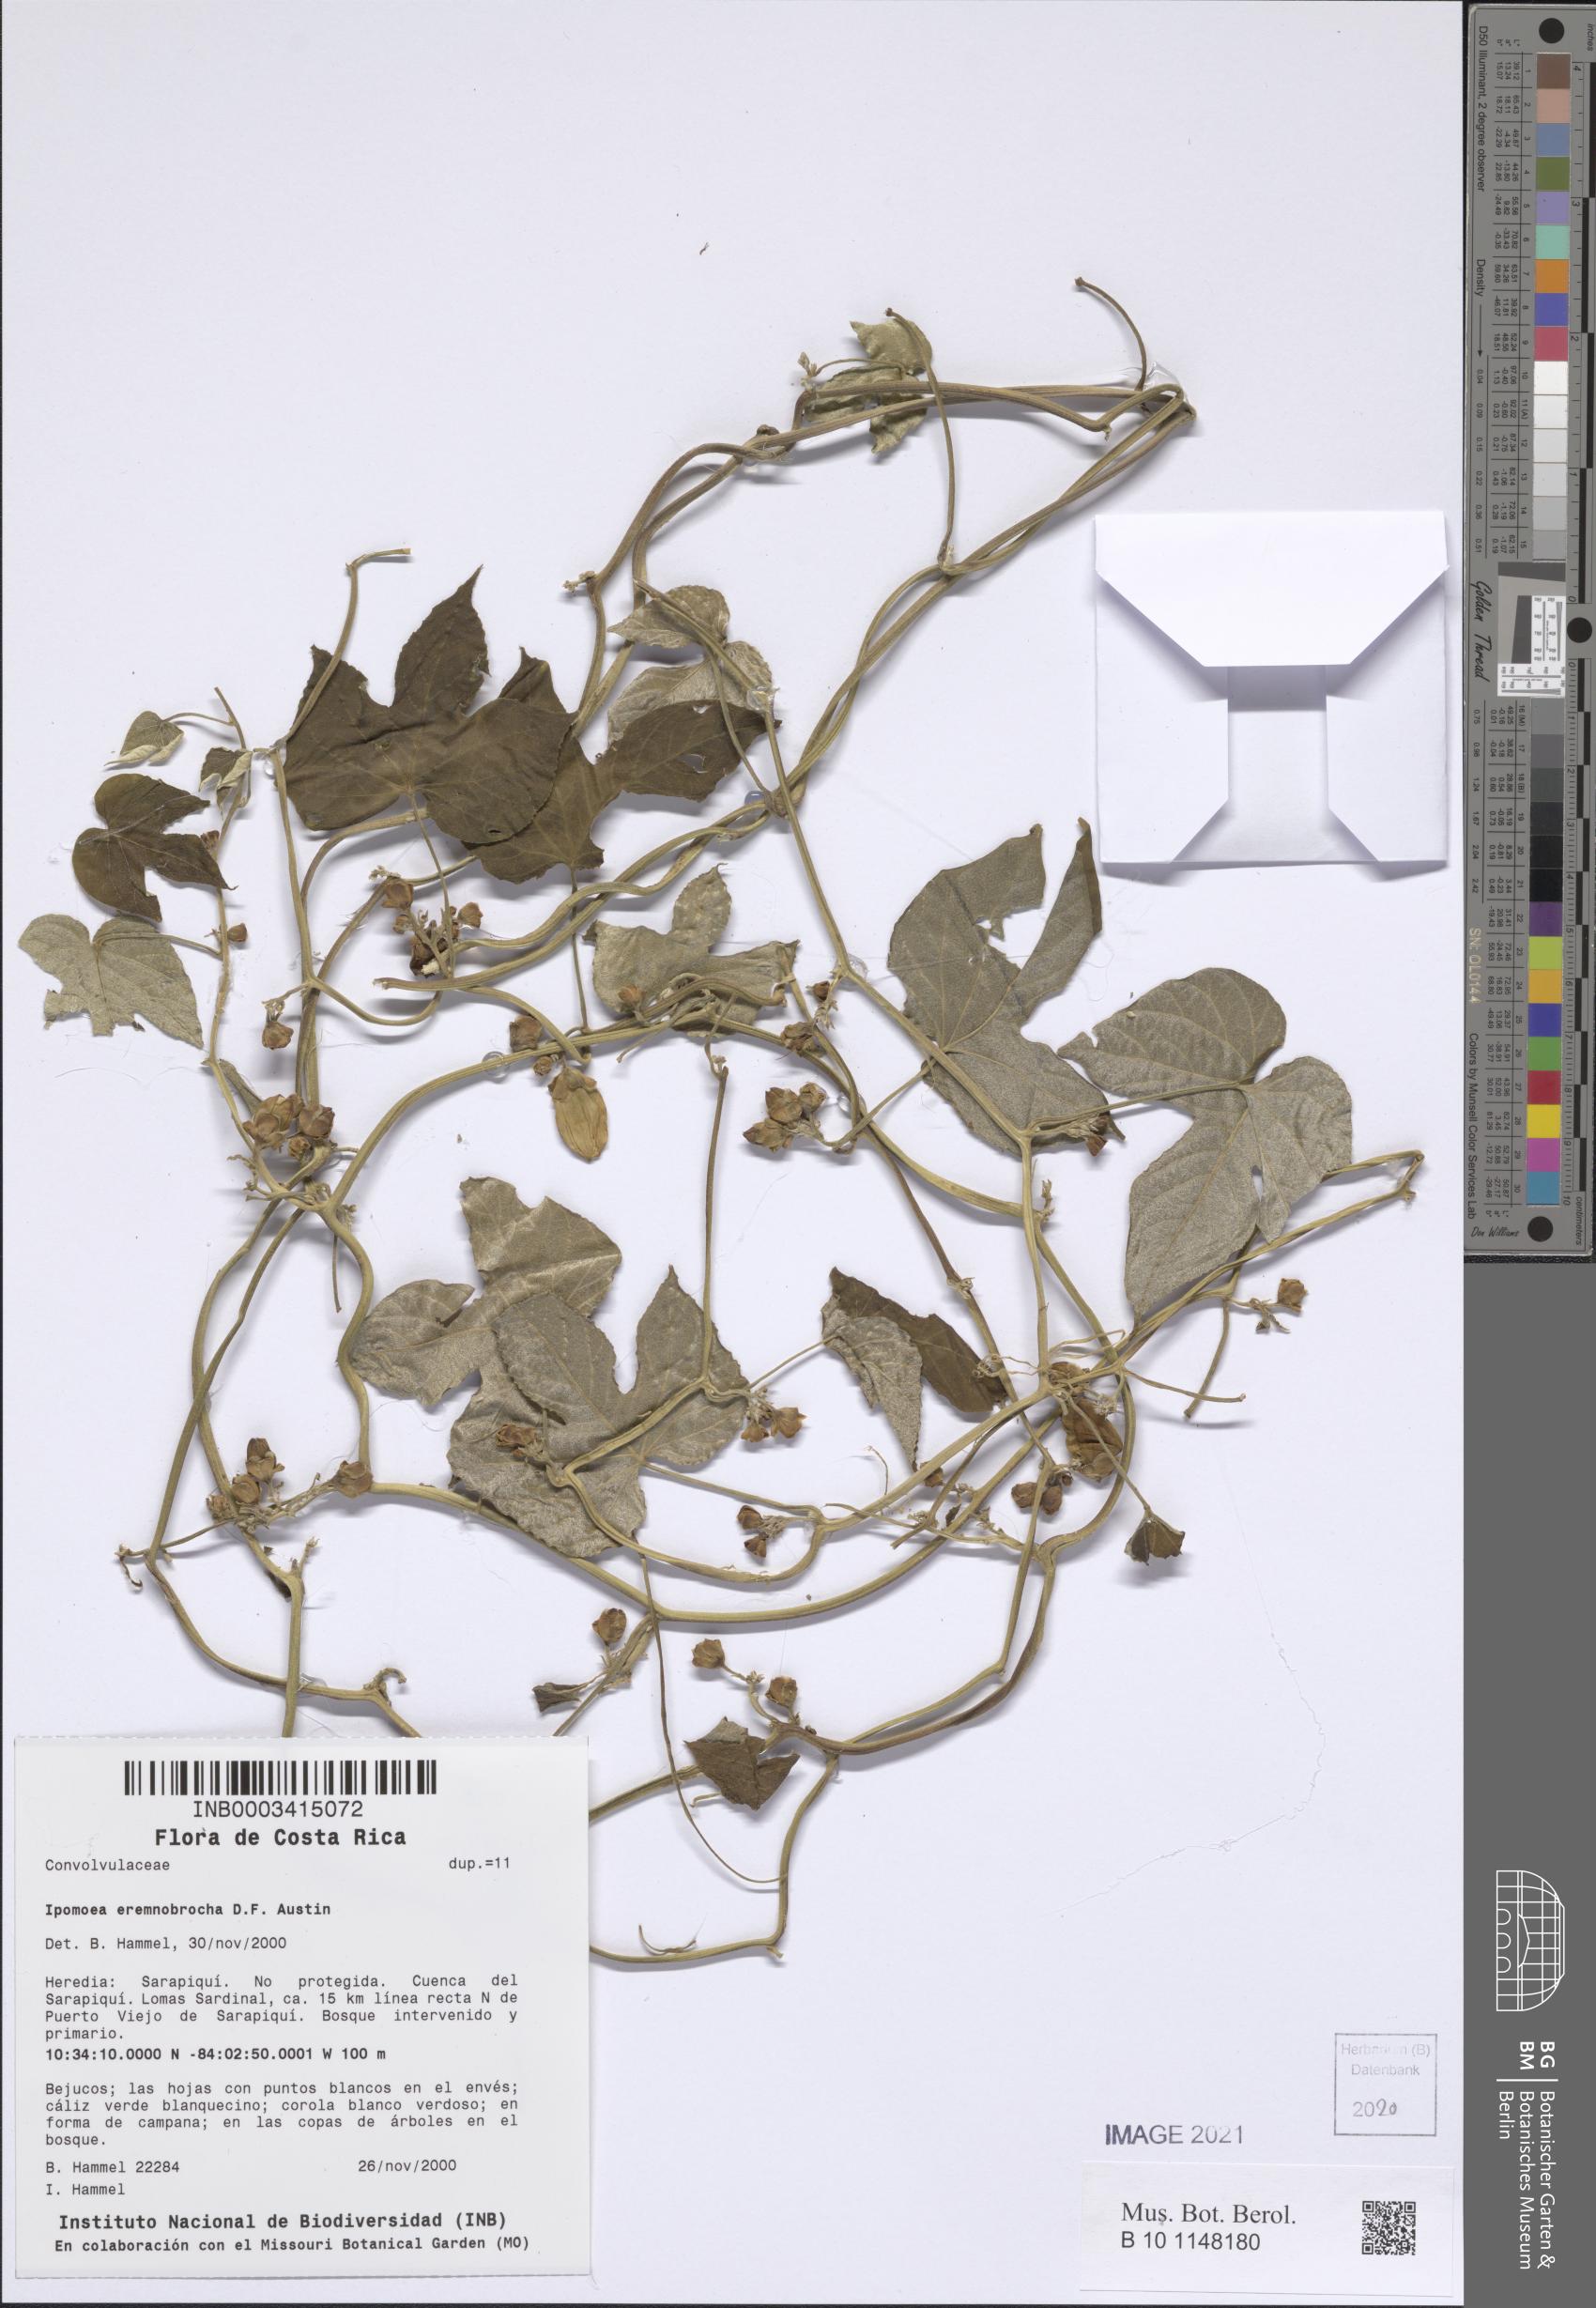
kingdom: Plantae
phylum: Tracheophyta
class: Magnoliopsida
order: Solanales
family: Convolvulaceae
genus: Ipomoea
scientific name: Ipomoea eremnobrocha
